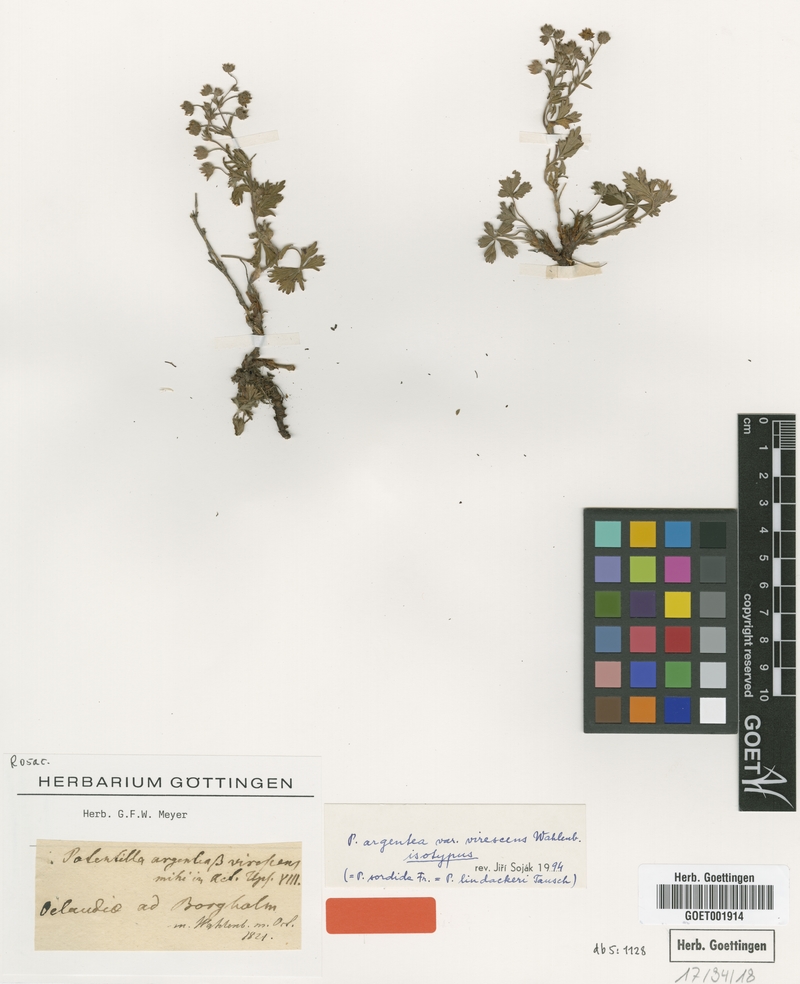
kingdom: Plantae
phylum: Tracheophyta
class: Magnoliopsida
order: Rosales
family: Rosaceae
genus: Potentilla
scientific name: Potentilla aspegrenii
